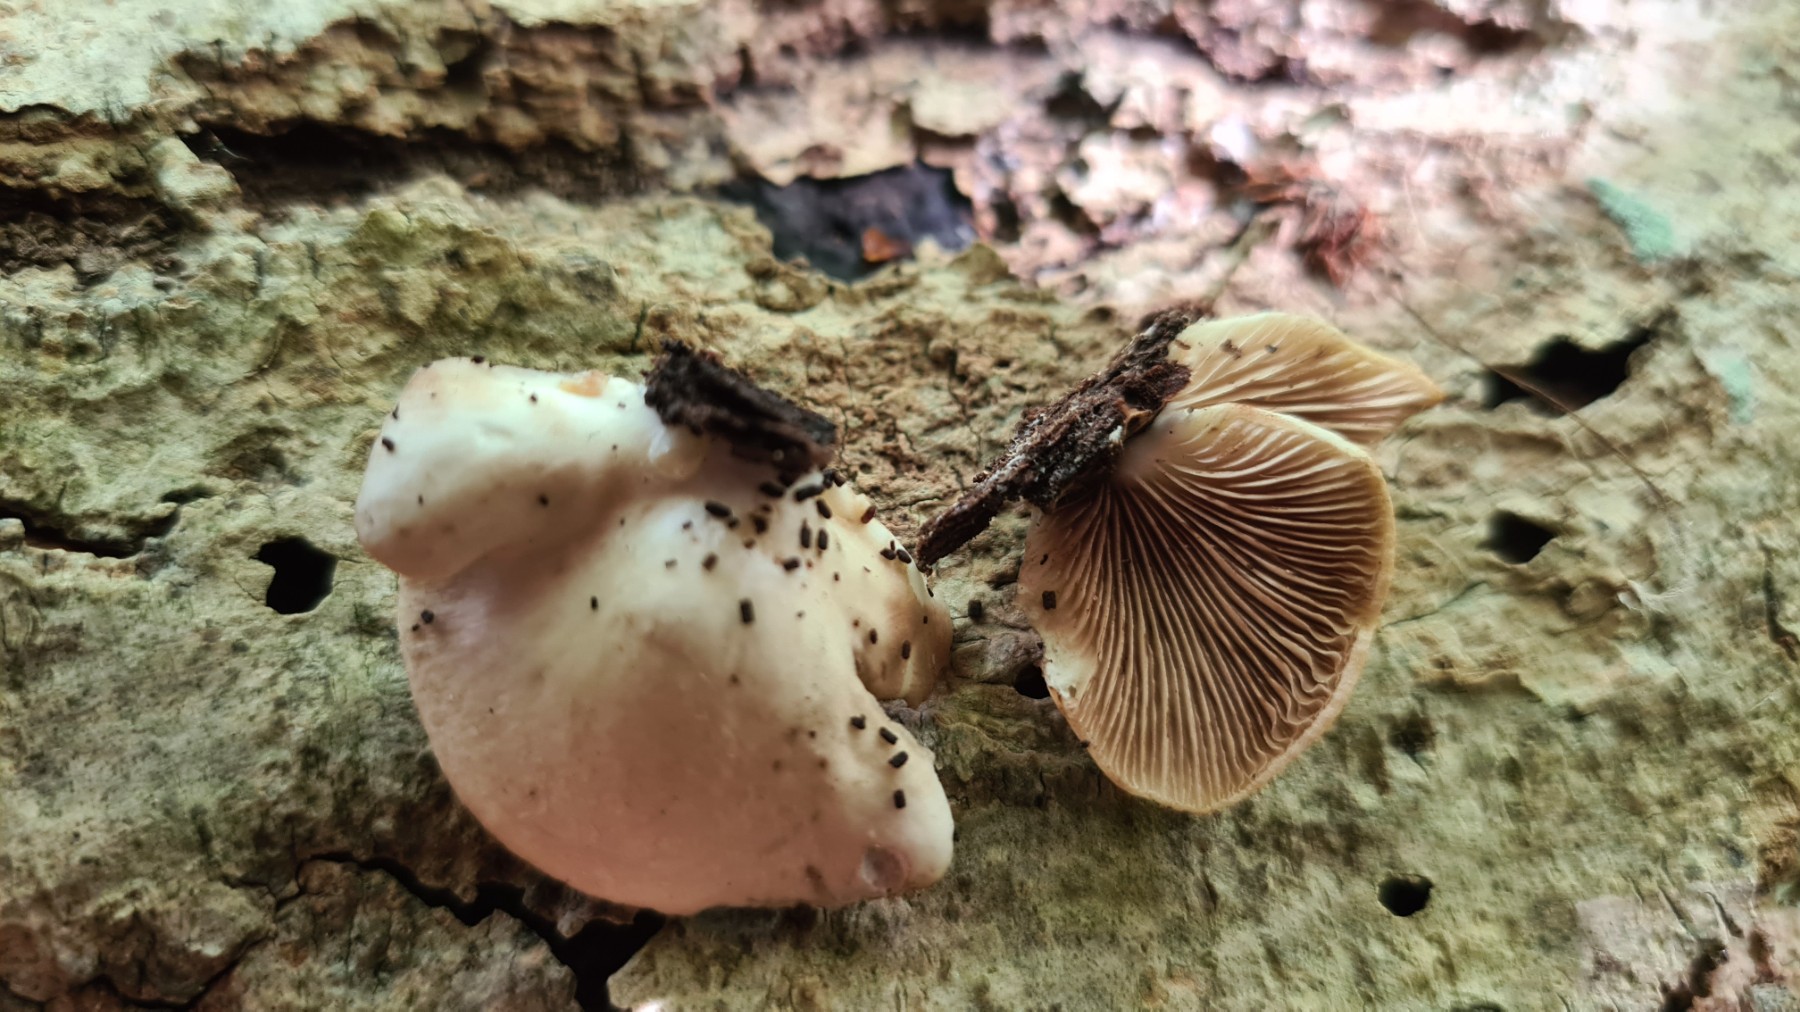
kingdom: Fungi
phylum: Basidiomycota
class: Agaricomycetes
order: Agaricales
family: Crepidotaceae
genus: Crepidotus
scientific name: Crepidotus mollis
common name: blød muslingesvamp
